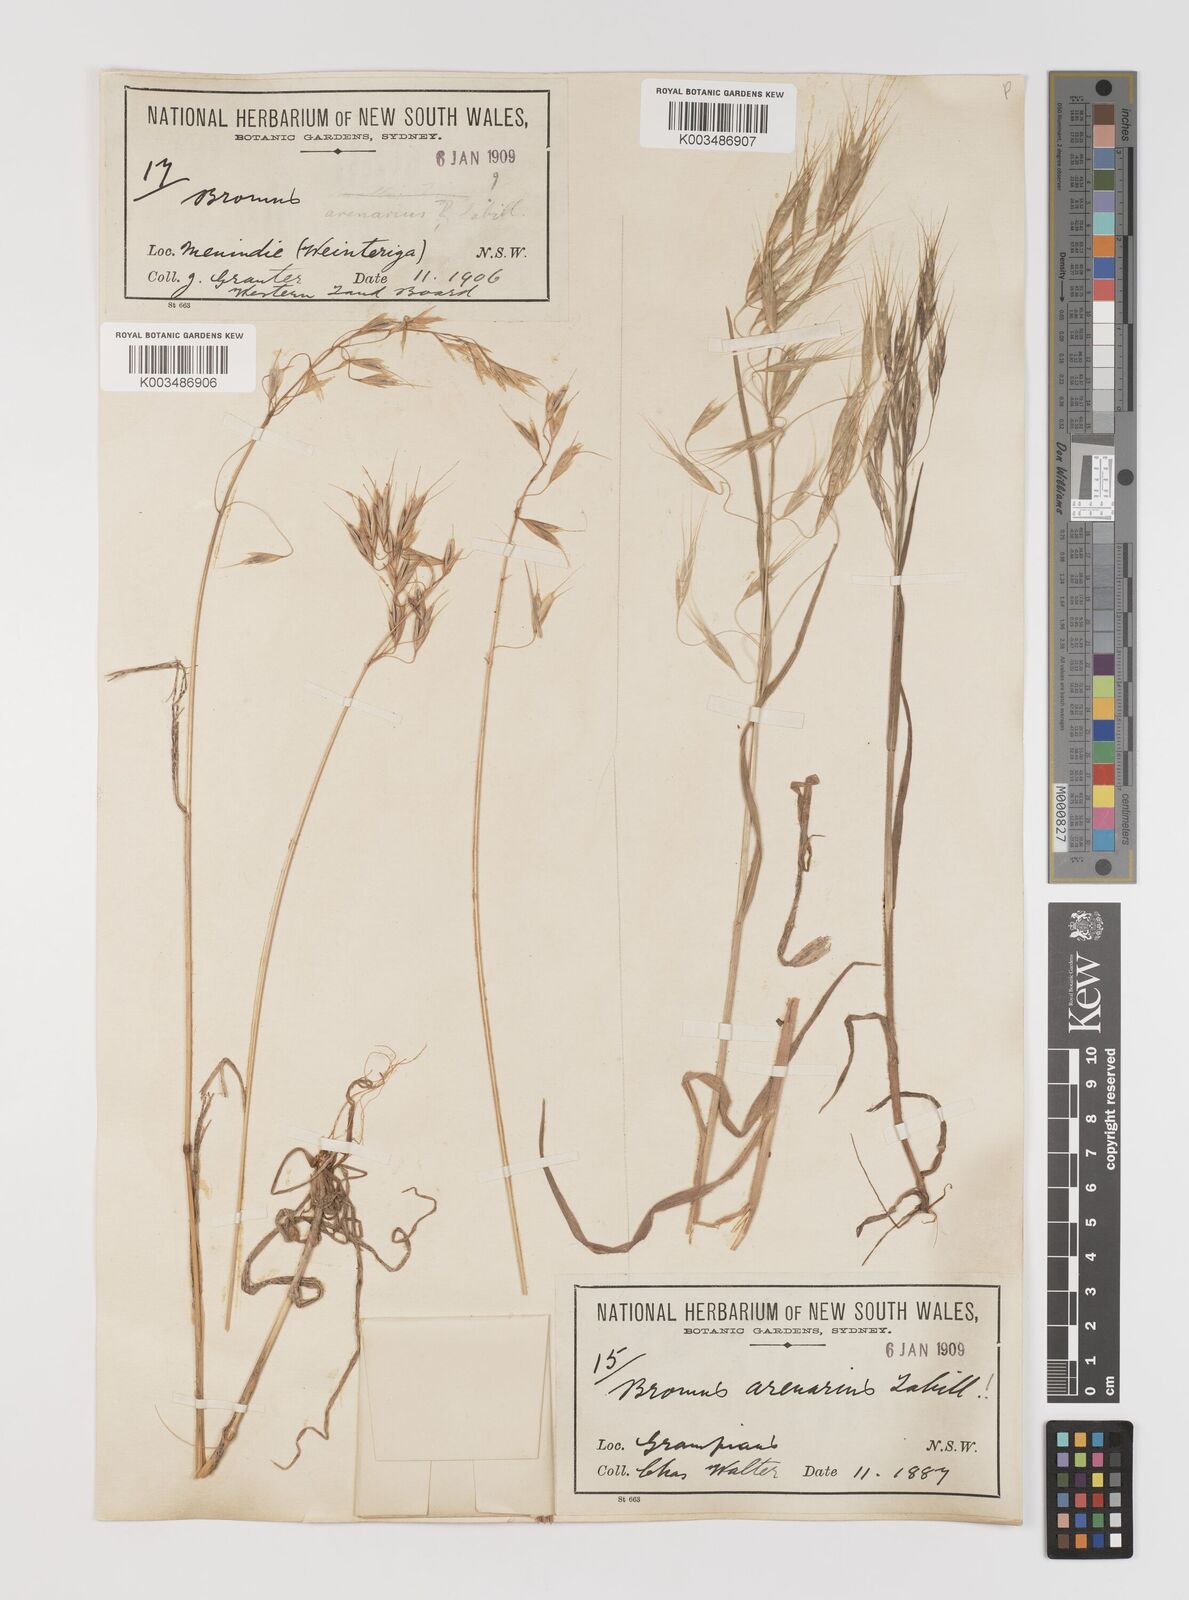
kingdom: Plantae
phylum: Tracheophyta
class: Liliopsida
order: Poales
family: Poaceae
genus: Bromus
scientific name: Bromus arenarius
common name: Australian brome
